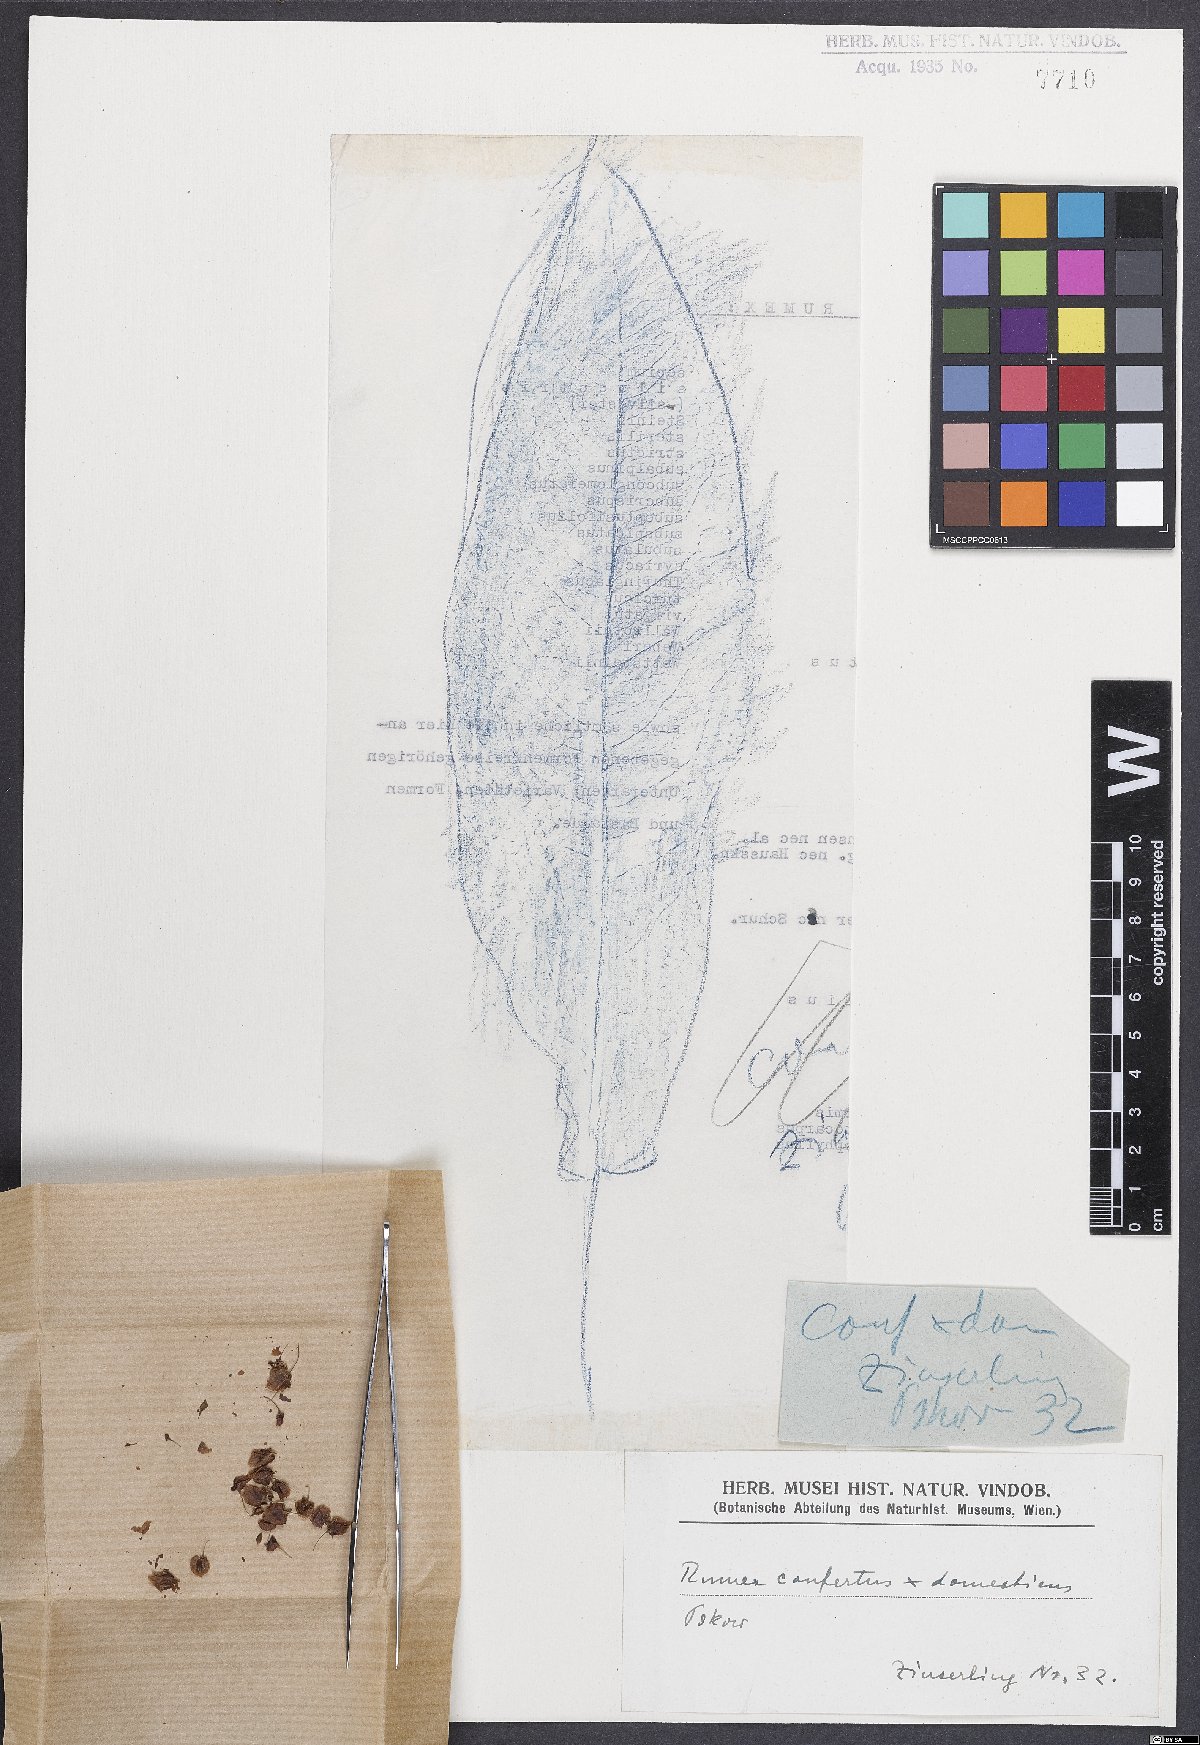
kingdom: Plantae
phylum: Tracheophyta
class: Magnoliopsida
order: Caryophyllales
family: Polygonaceae
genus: Rumex
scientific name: Rumex
